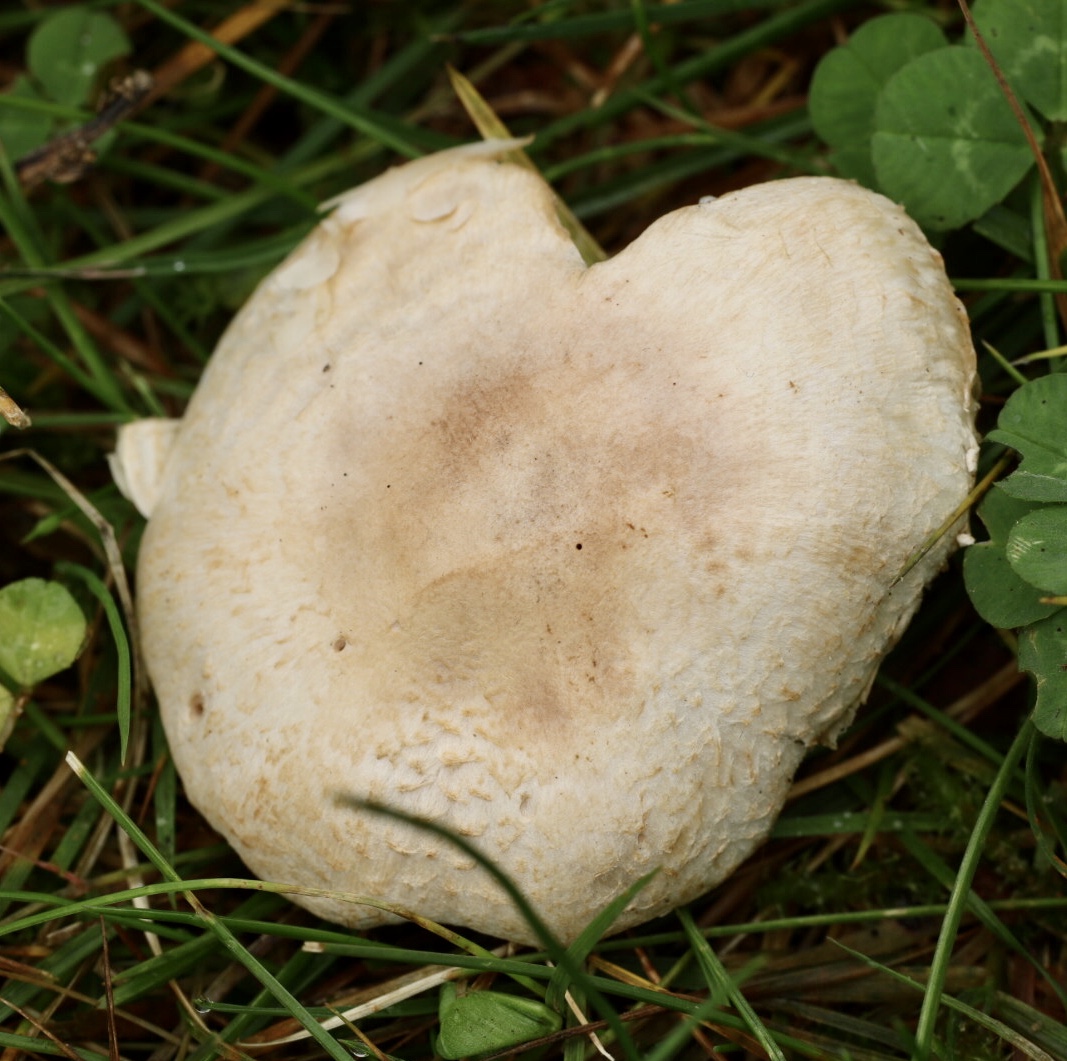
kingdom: Fungi
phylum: Basidiomycota
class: Agaricomycetes
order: Agaricales
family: Agaricaceae
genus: Lepiota
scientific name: Lepiota erminea
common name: hvid parasolhat
